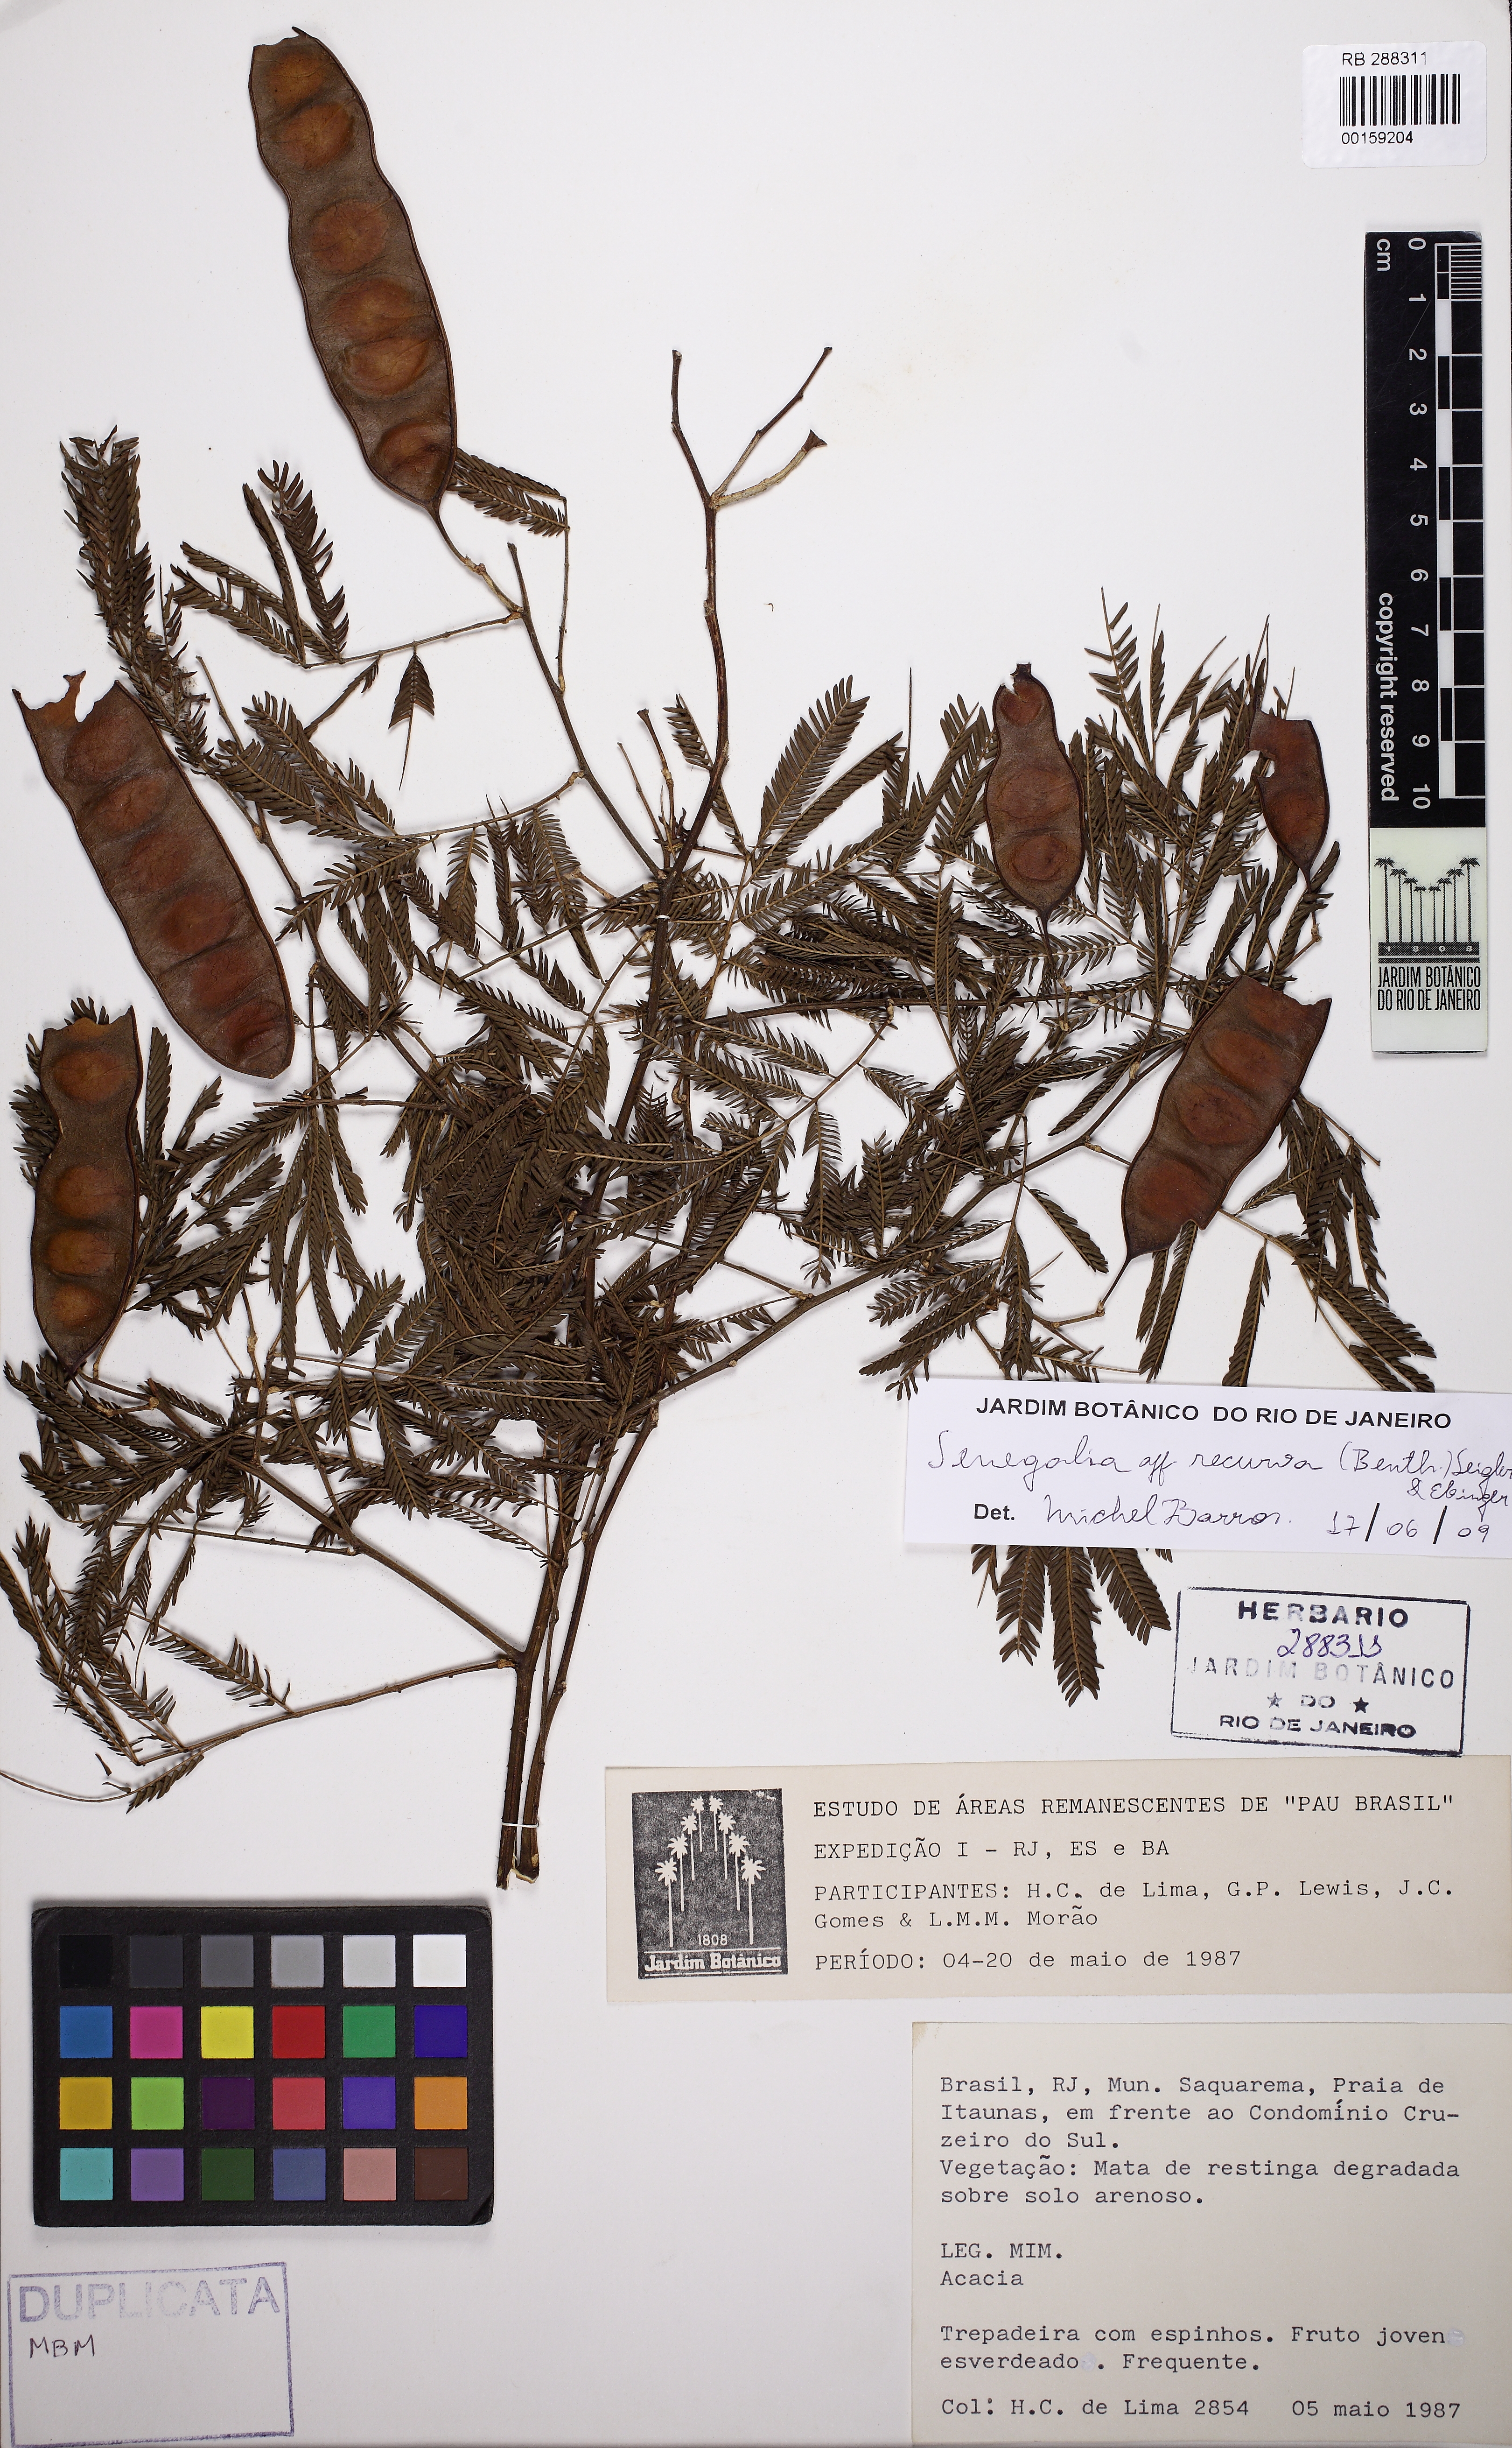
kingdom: Plantae
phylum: Tracheophyta
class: Magnoliopsida
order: Fabales
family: Fabaceae
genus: Senegalia
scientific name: Senegalia riparia
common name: Catch-and-keep
